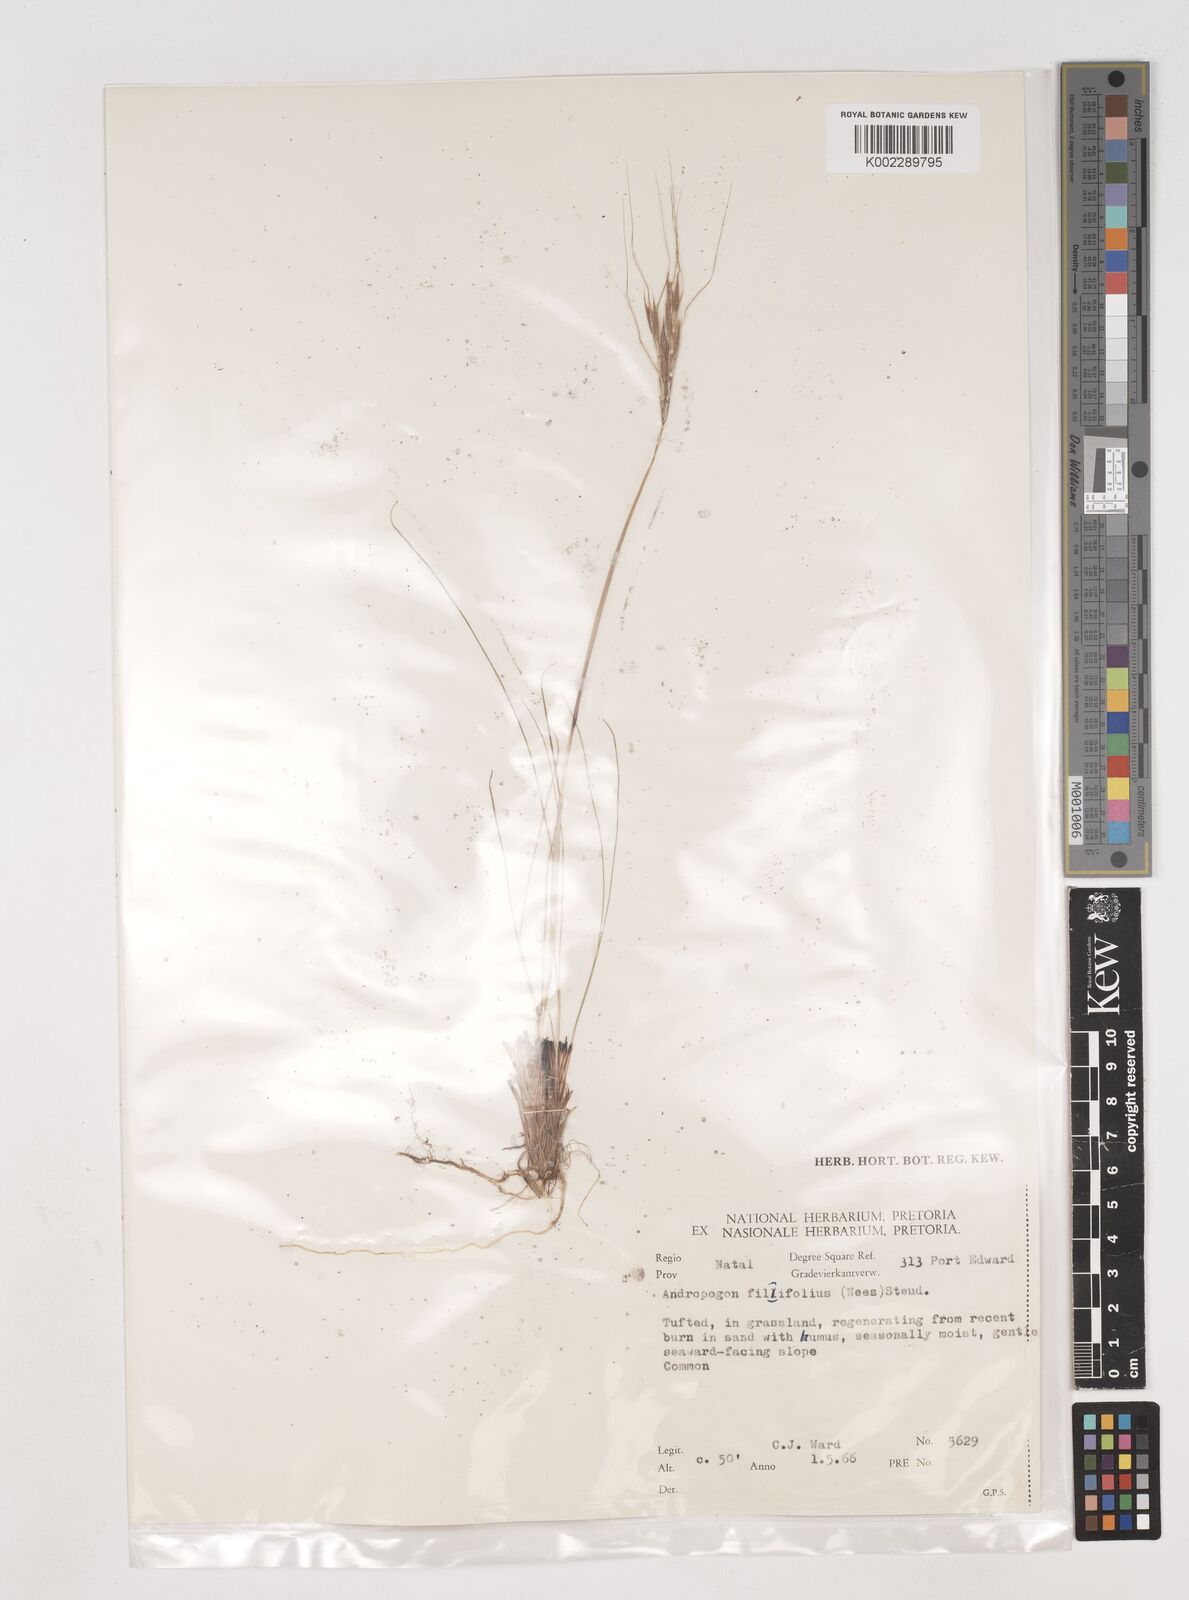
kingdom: Plantae
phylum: Tracheophyta
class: Liliopsida
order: Poales
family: Poaceae
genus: Diheteropogon
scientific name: Diheteropogon filifolius
